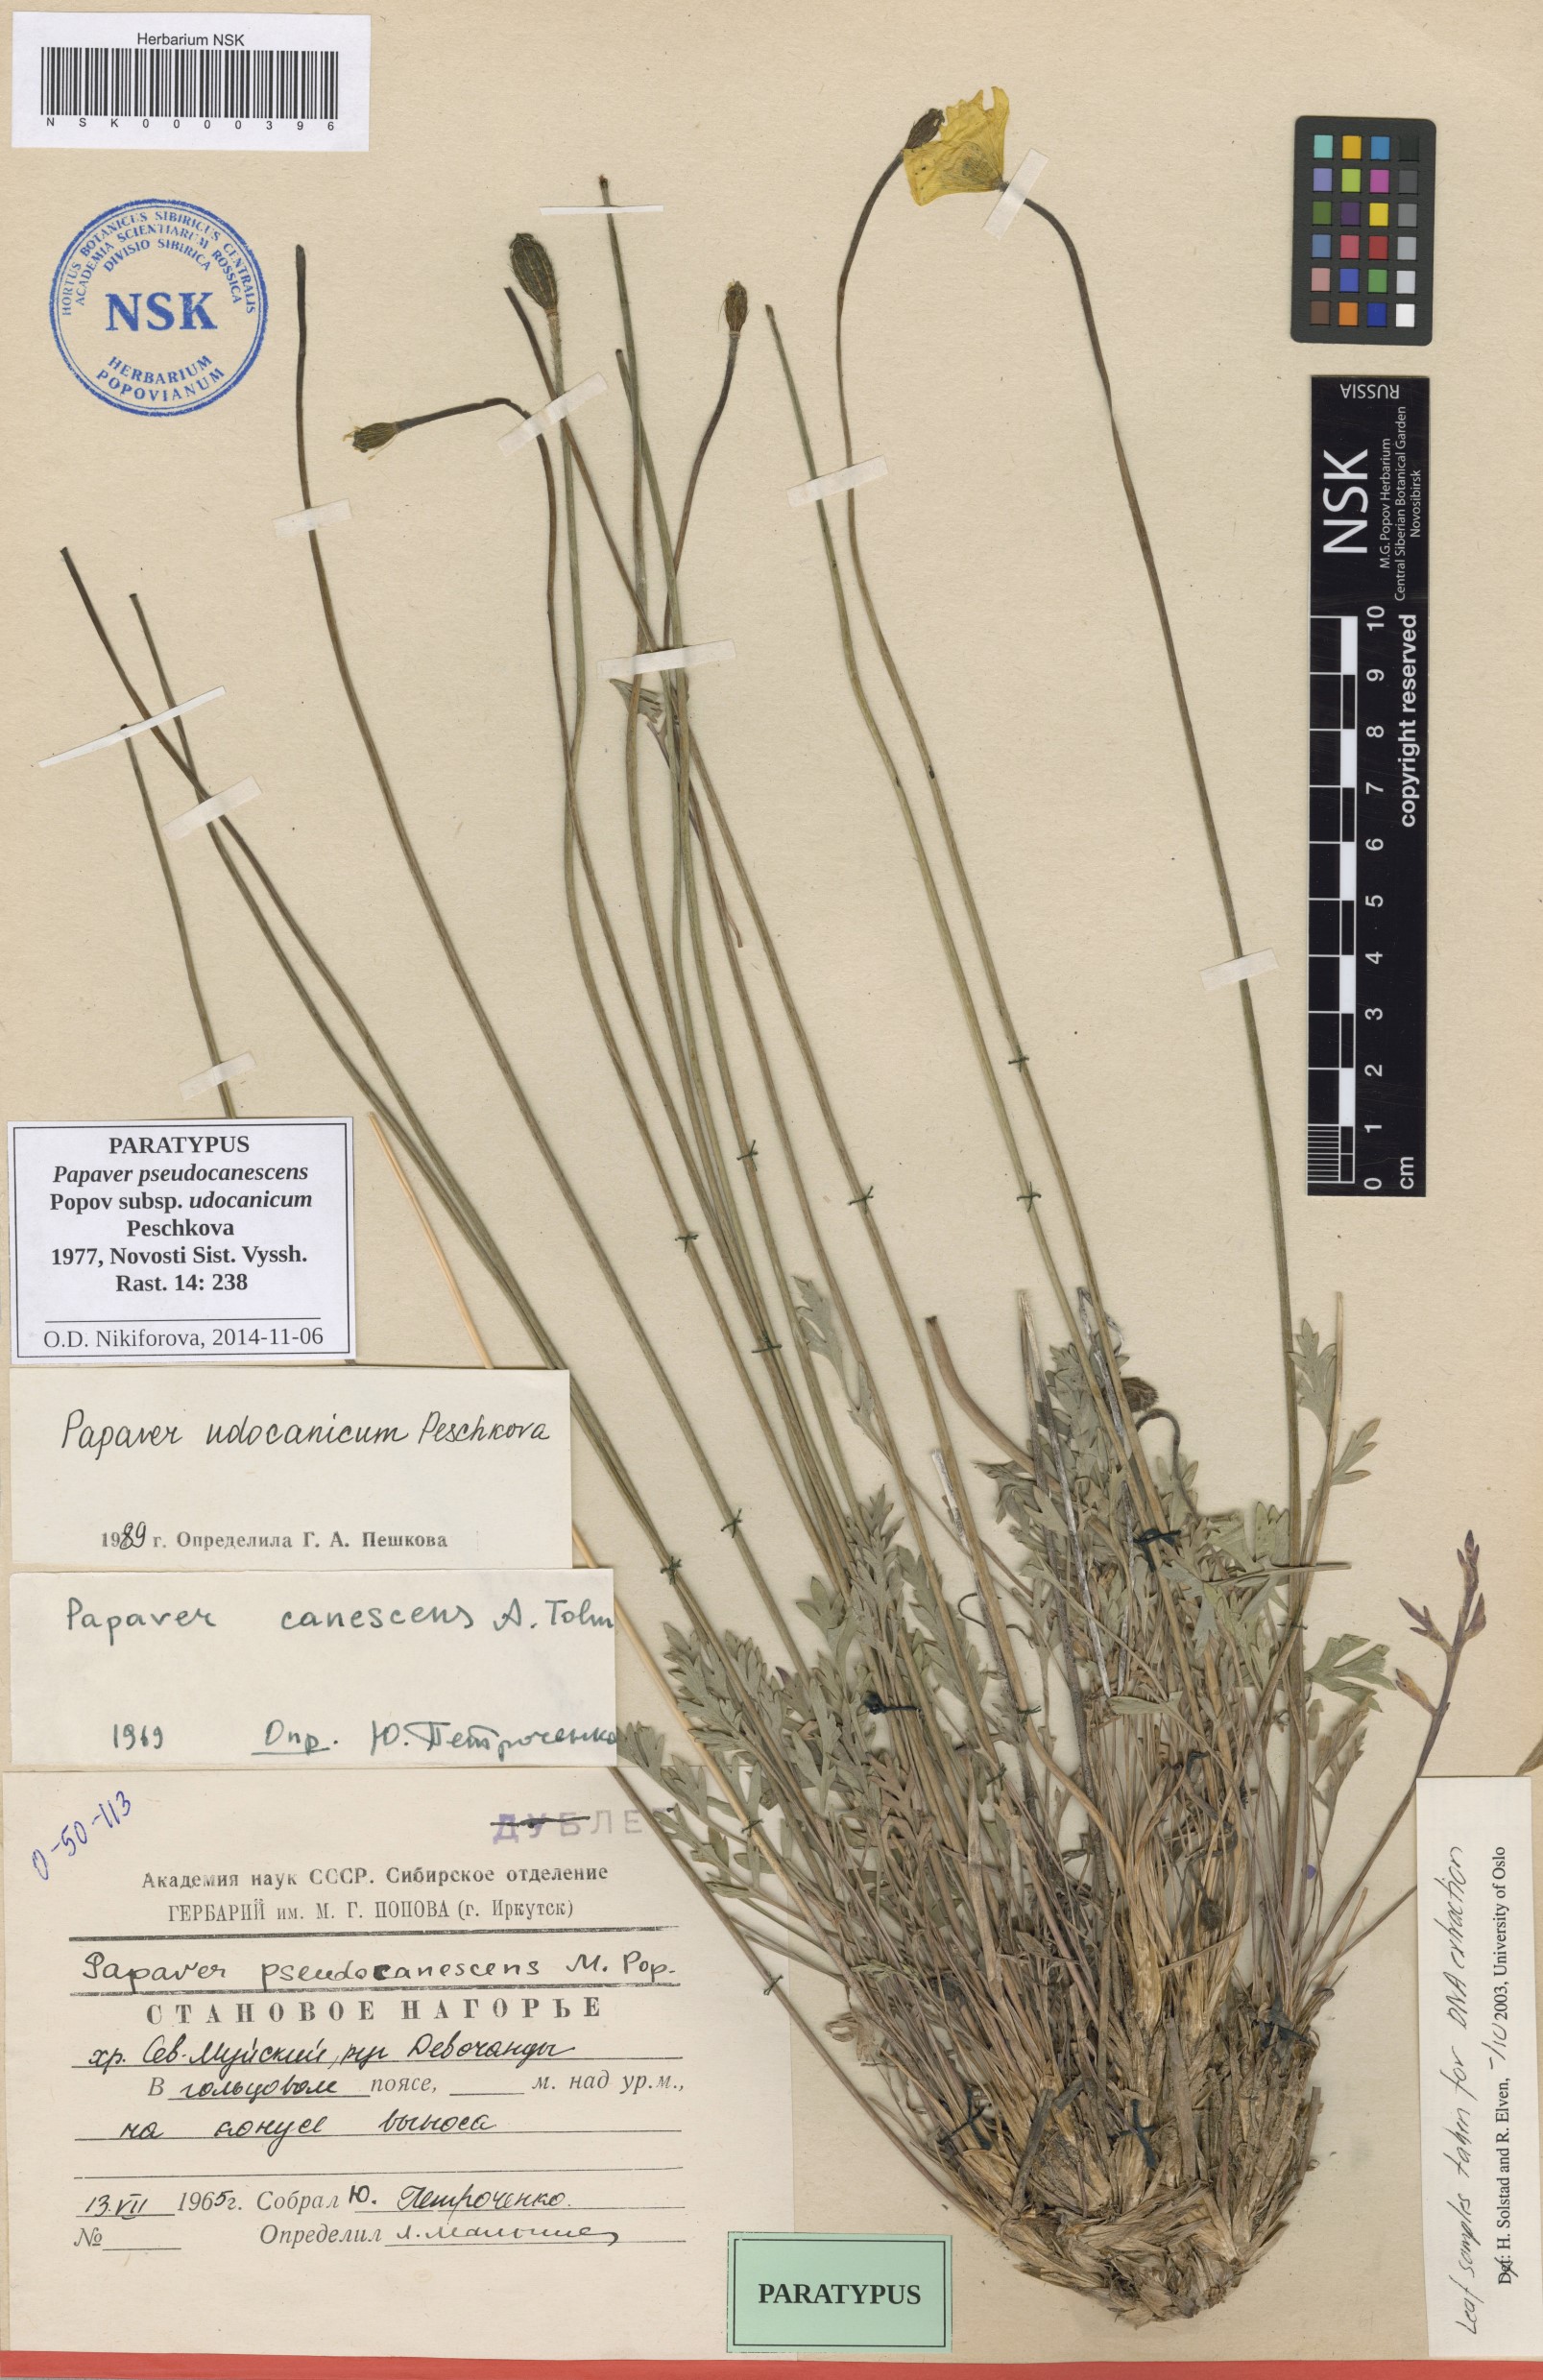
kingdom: Plantae
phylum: Tracheophyta
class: Magnoliopsida
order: Ranunculales
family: Papaveraceae
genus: Papaver
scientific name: Papaver udocanicum
